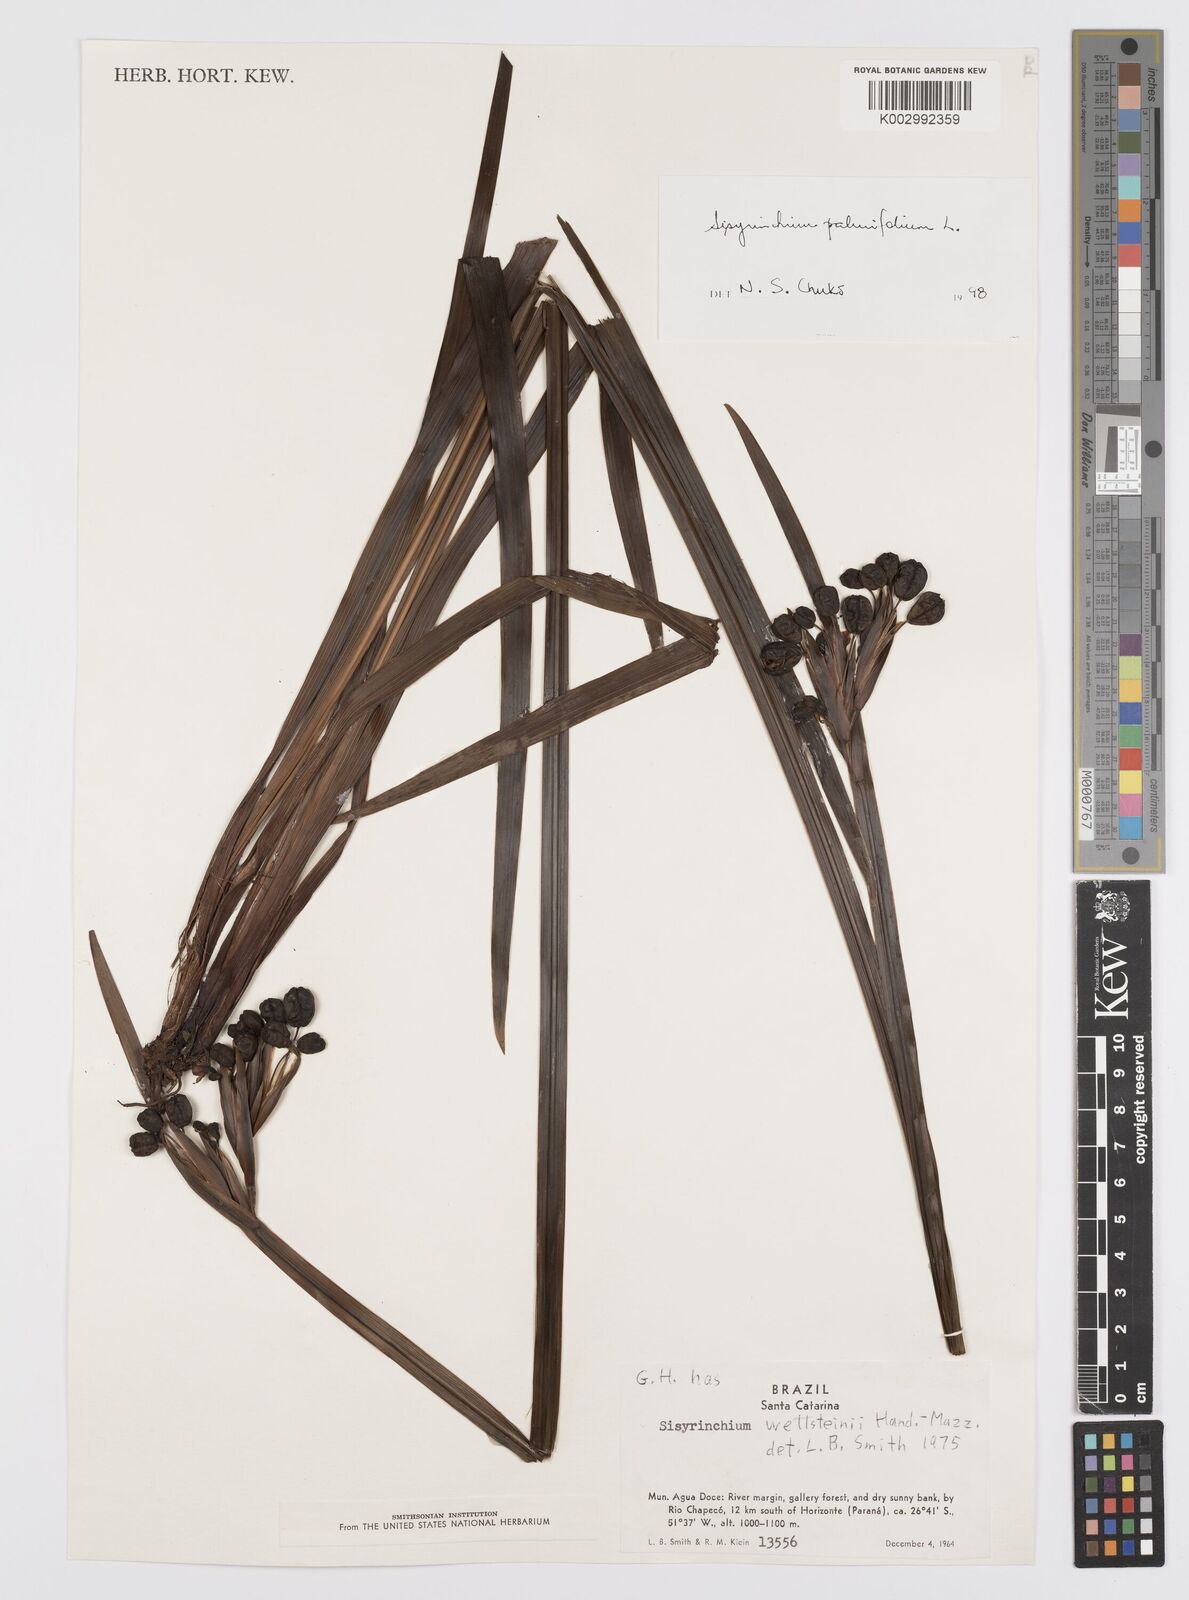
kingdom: Plantae
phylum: Tracheophyta
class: Liliopsida
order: Asparagales
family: Iridaceae
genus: Sisyrinchium
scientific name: Sisyrinchium palmifolium
